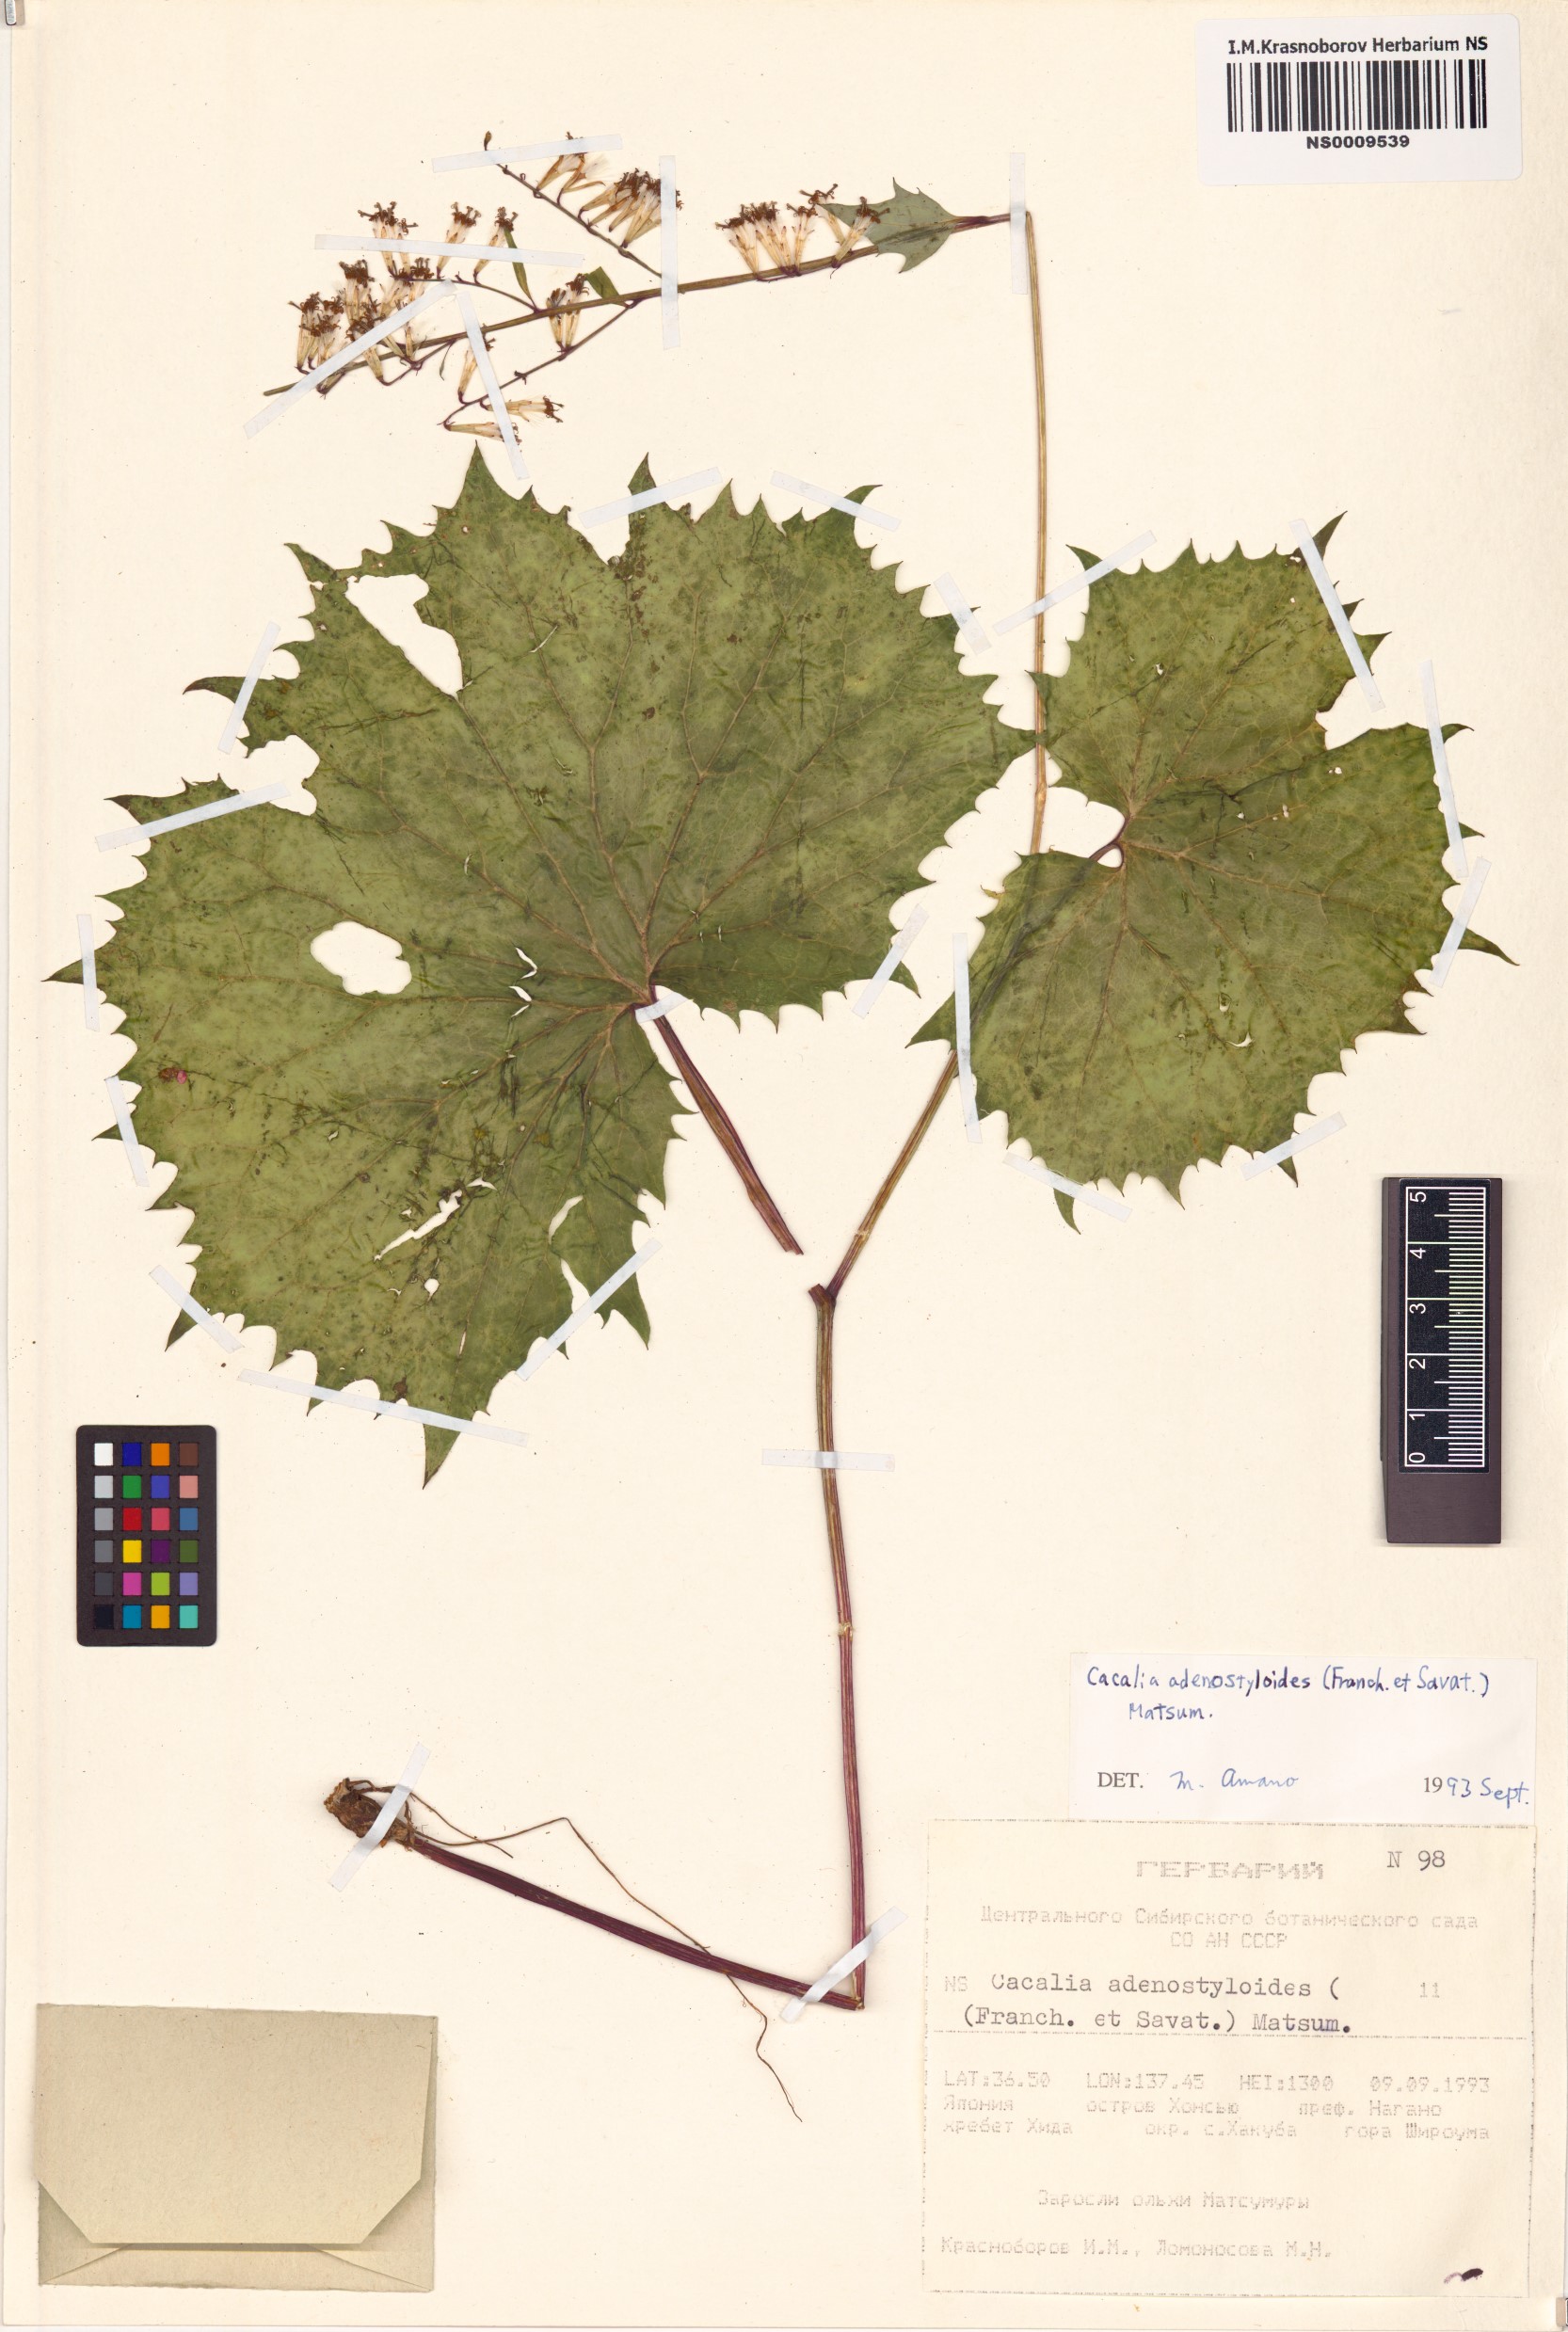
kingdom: Plantae
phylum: Tracheophyta
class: Magnoliopsida
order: Asterales
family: Asteraceae
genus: Parasenecio
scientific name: Parasenecio adenostyloides
